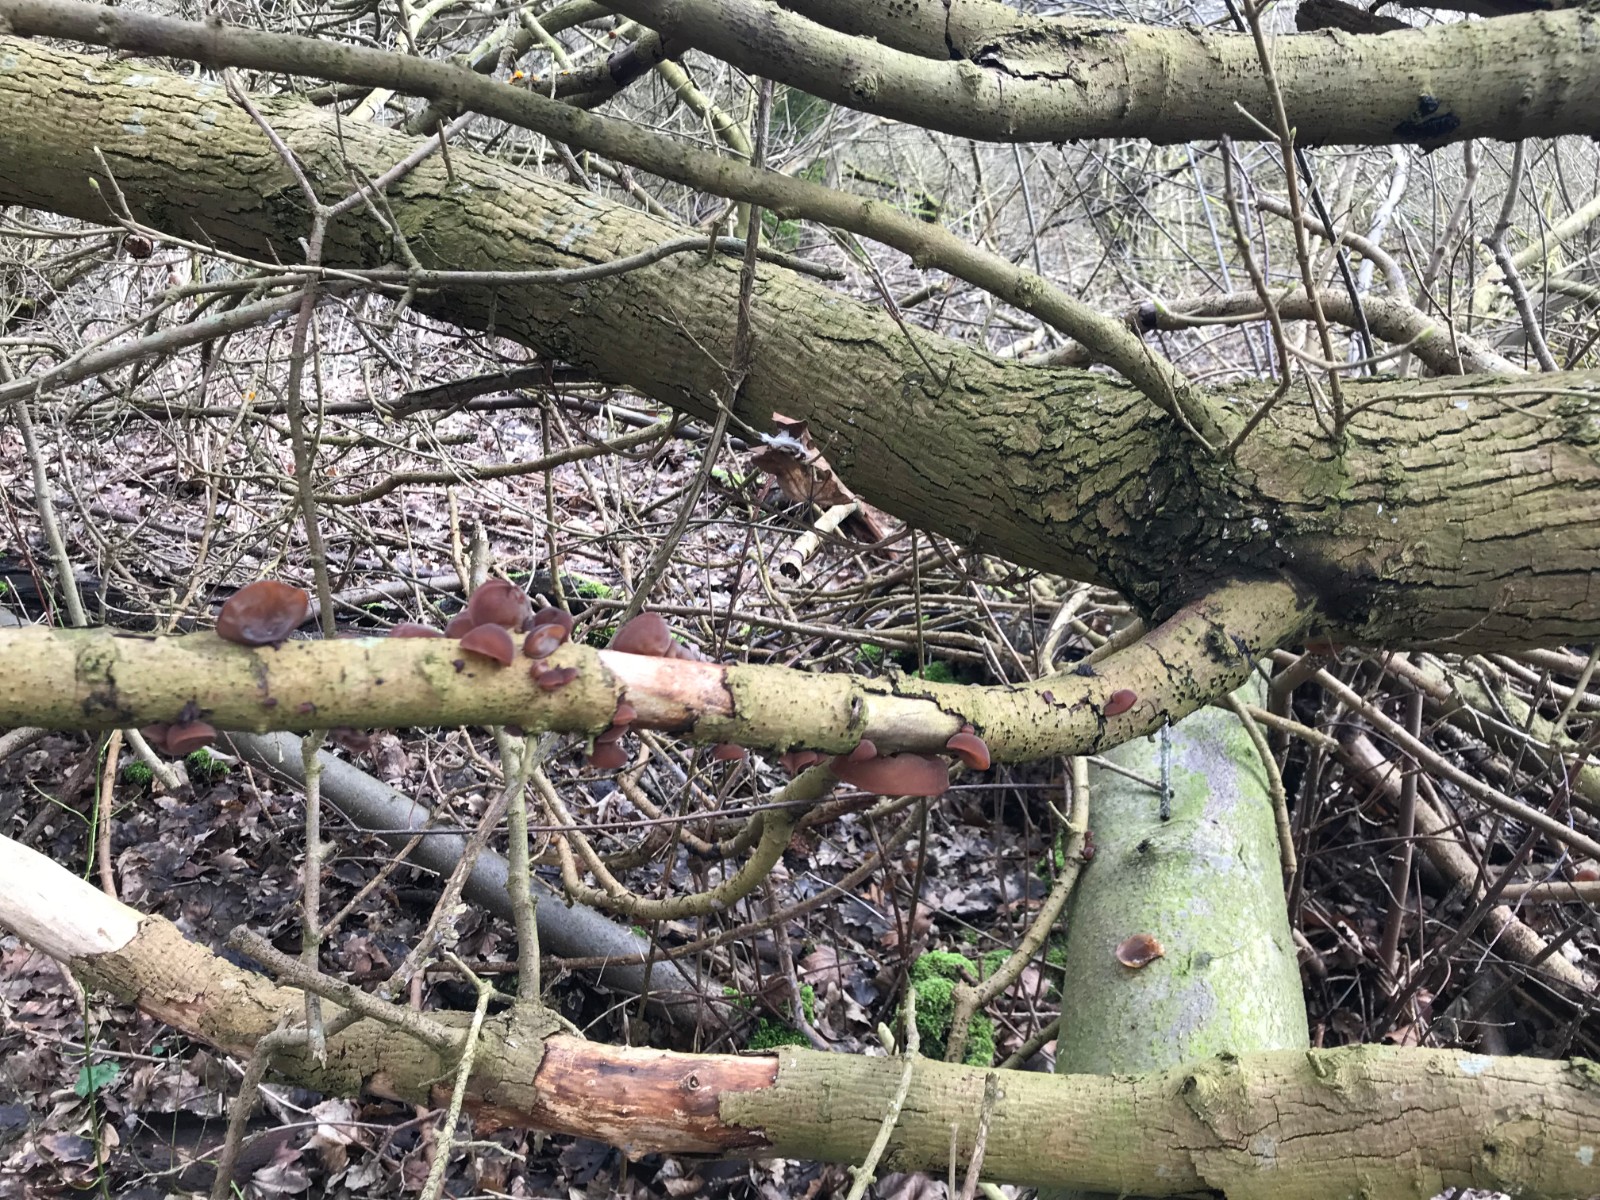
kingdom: Fungi
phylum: Basidiomycota
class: Agaricomycetes
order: Auriculariales
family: Auriculariaceae
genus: Auricularia
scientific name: Auricularia auricula-judae
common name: almindelig judasøre
